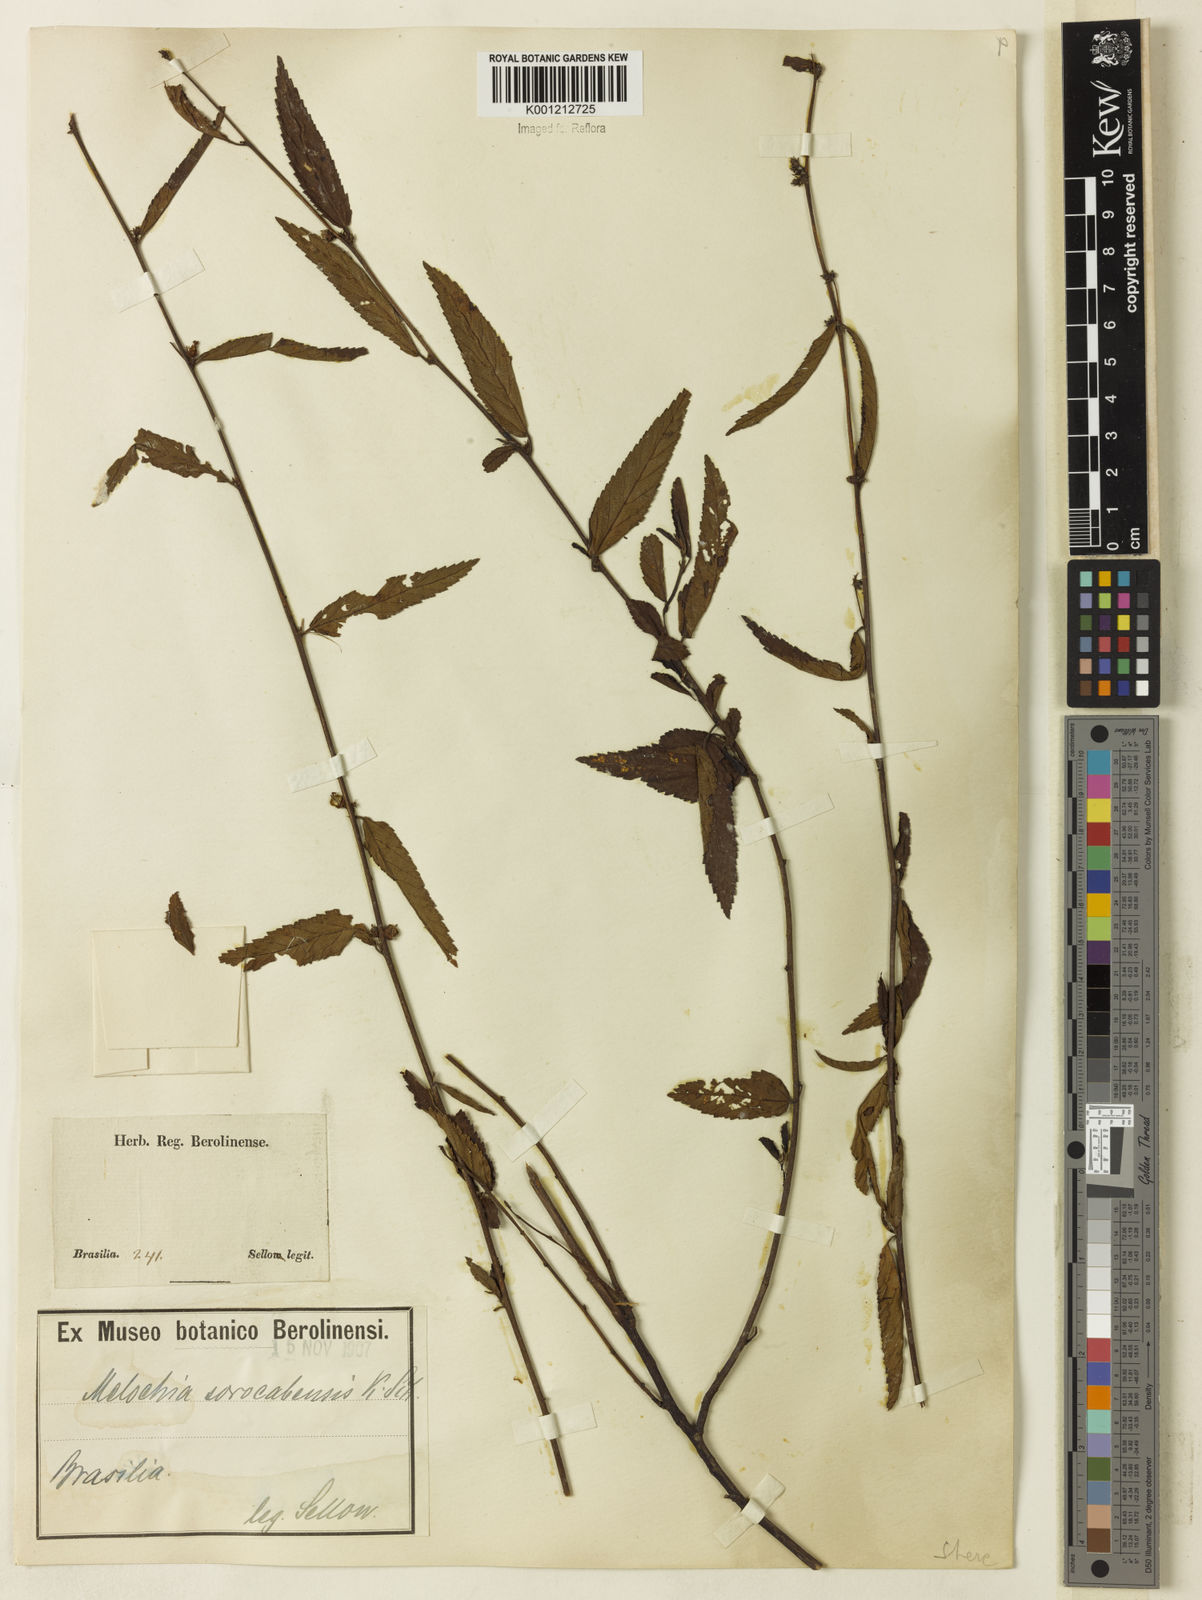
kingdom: Plantae
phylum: Tracheophyta
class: Magnoliopsida
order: Malvales
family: Malvaceae
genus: Melochia
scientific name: Melochia simplex
